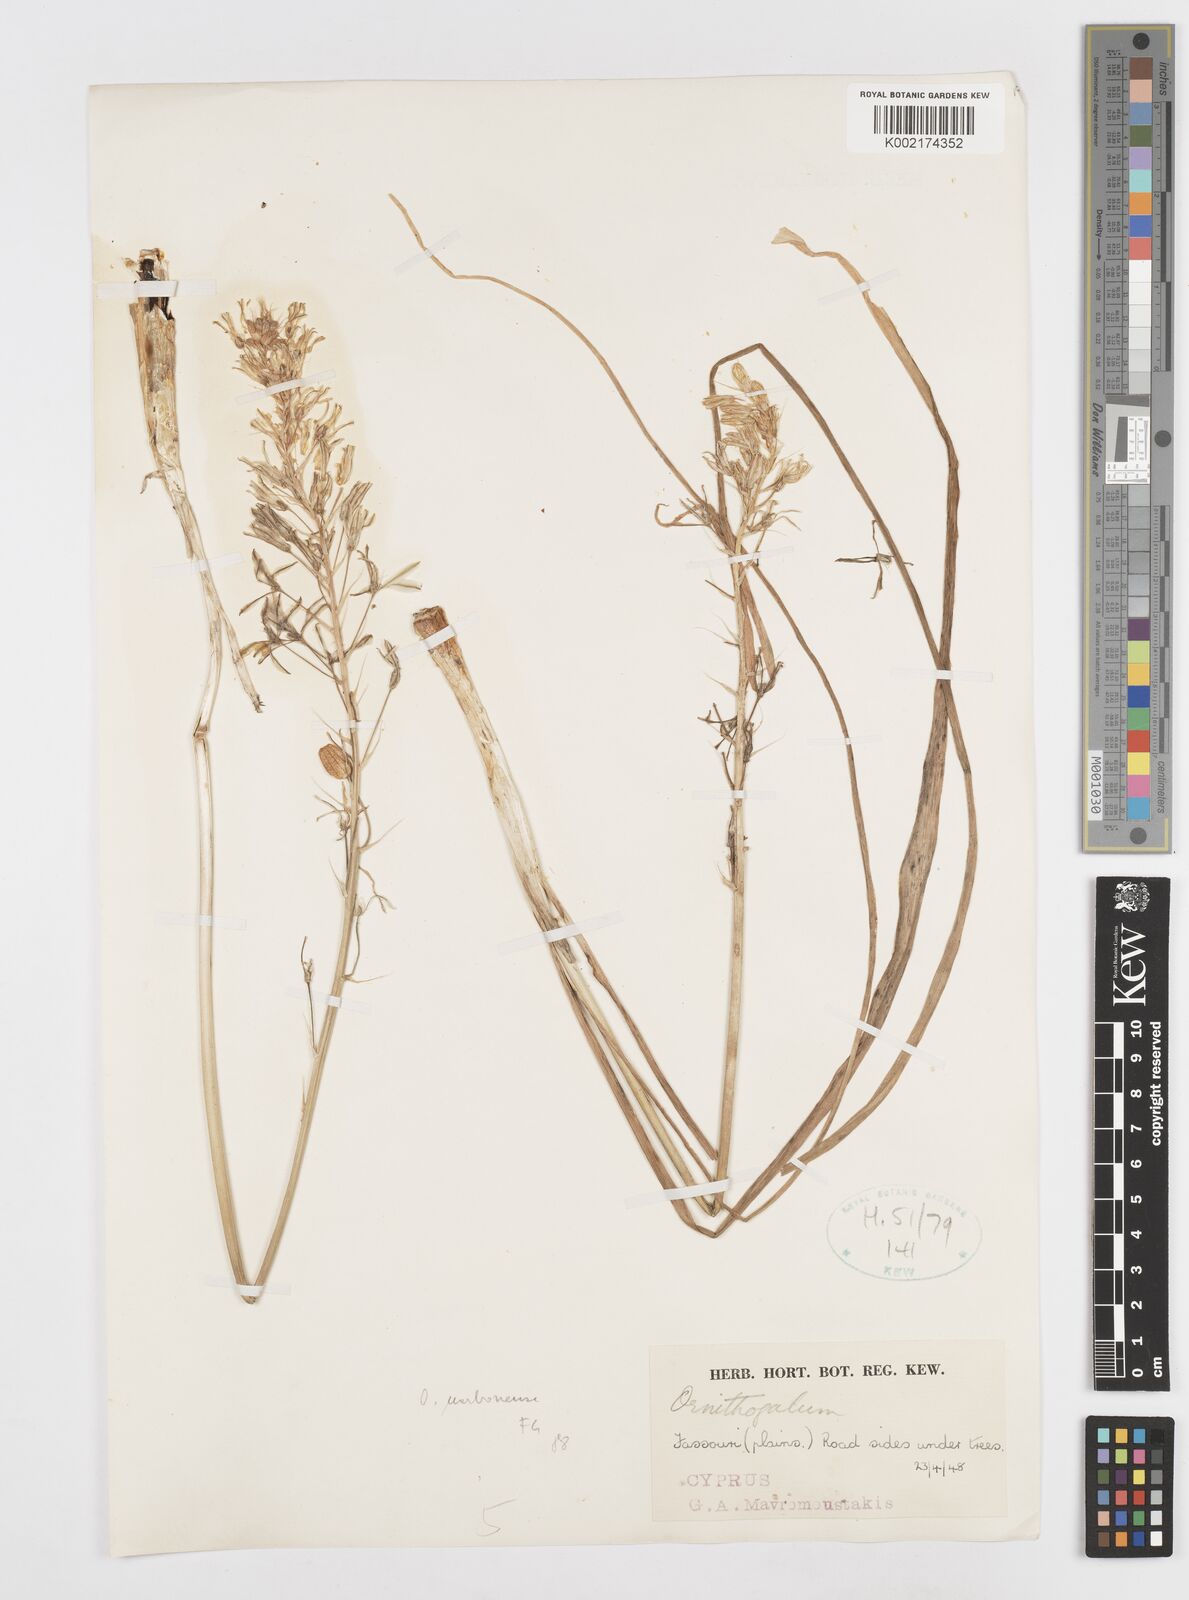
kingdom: Plantae
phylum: Tracheophyta
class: Liliopsida
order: Asparagales
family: Asparagaceae
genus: Ornithogalum
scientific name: Ornithogalum narbonense
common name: Bath-asparagus
